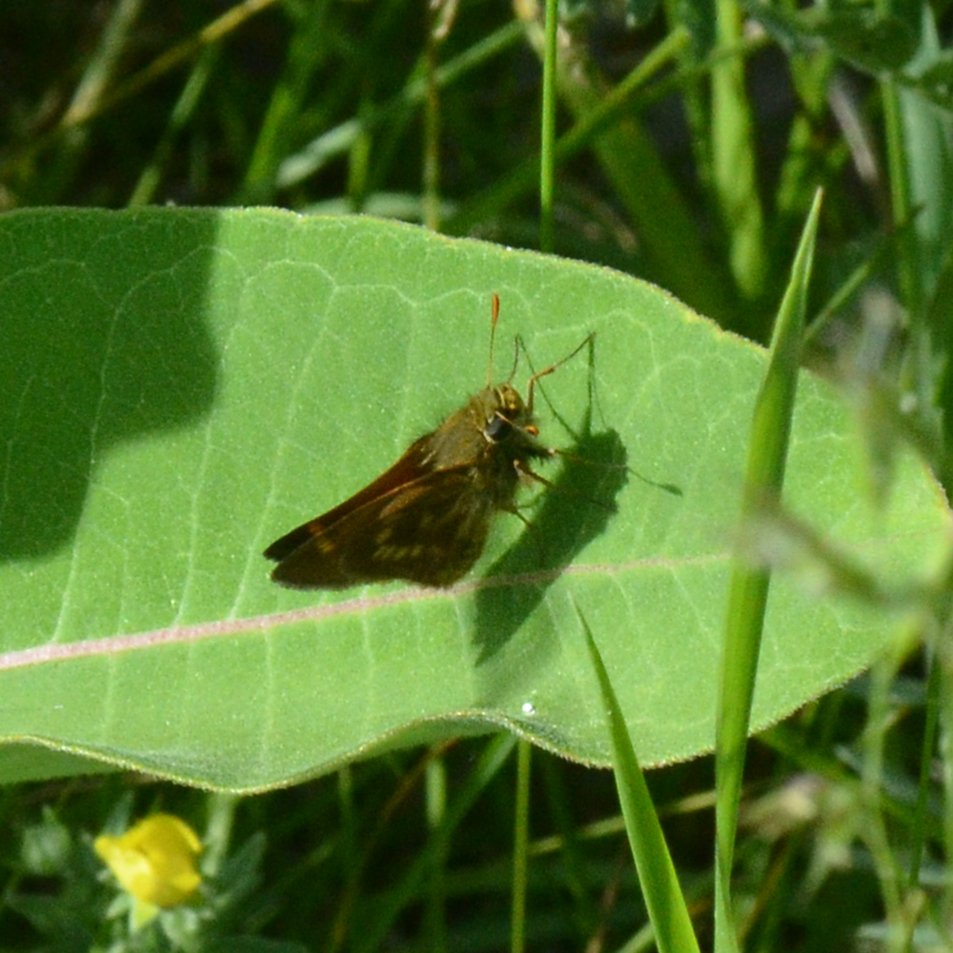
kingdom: Animalia
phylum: Arthropoda
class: Insecta
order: Lepidoptera
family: Hesperiidae
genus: Polites
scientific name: Polites
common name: Long Dash Skipper
